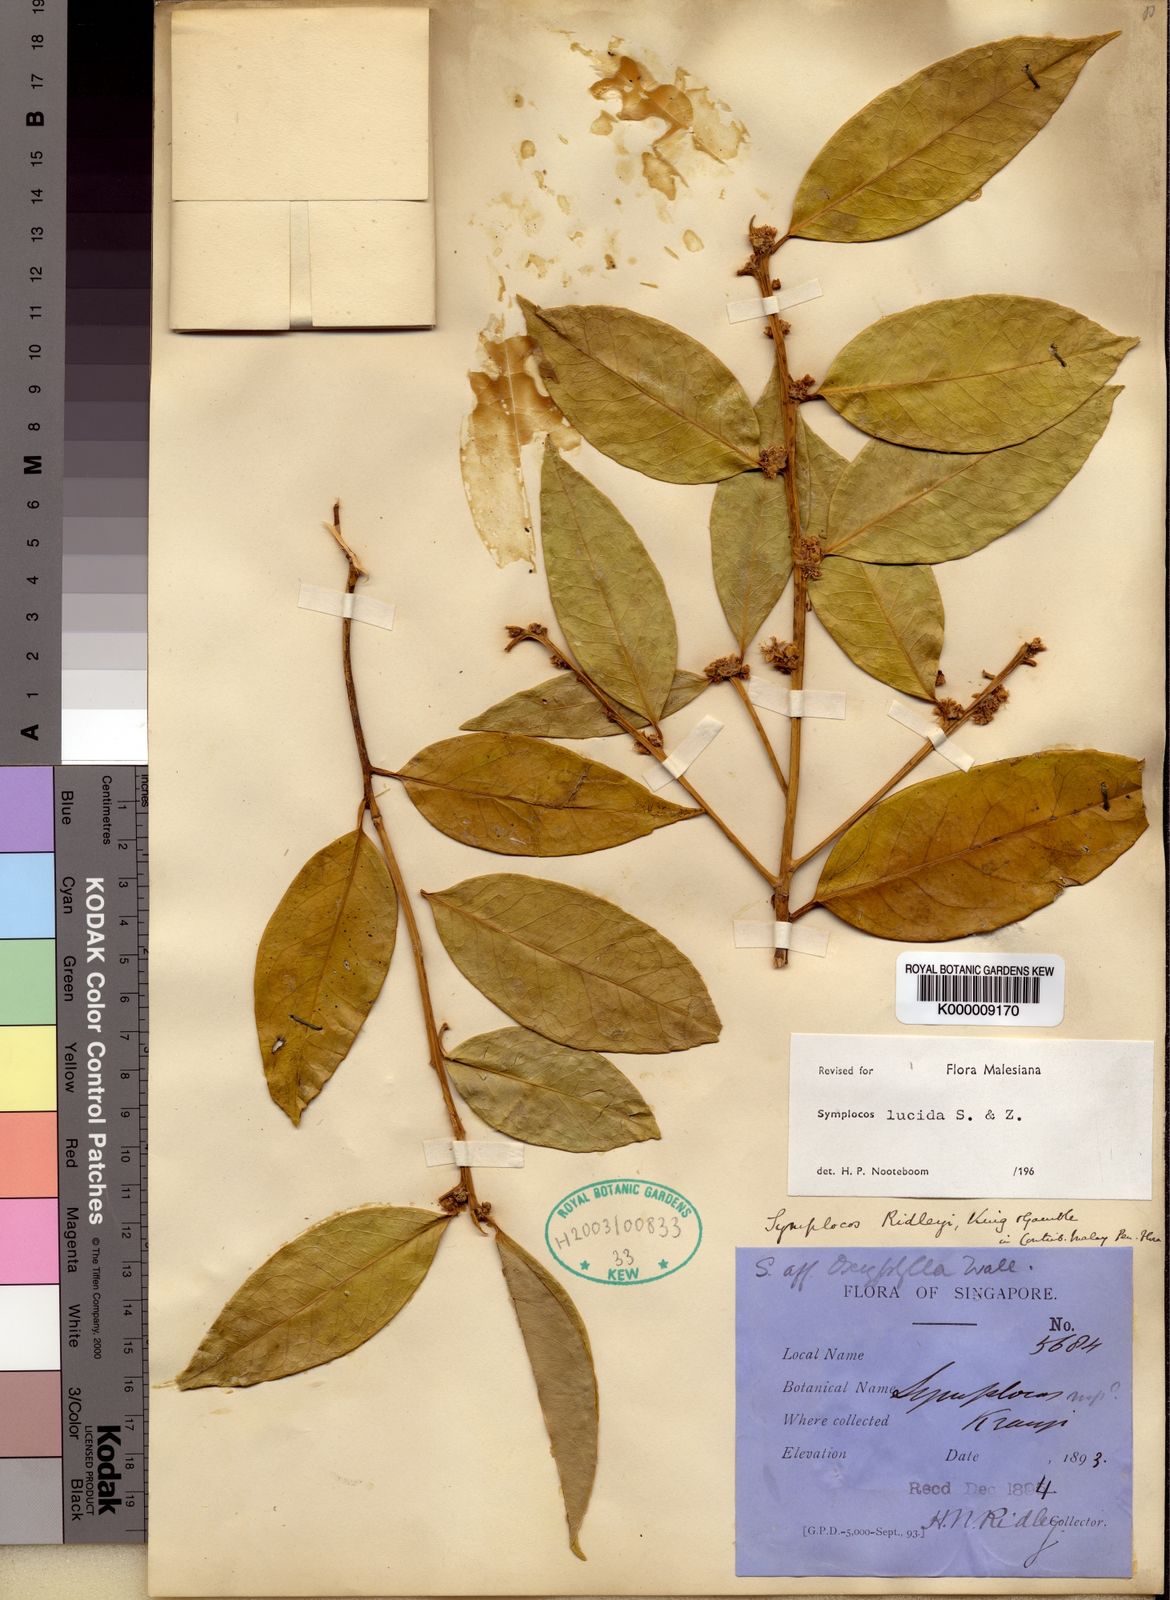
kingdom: Plantae
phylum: Tracheophyta
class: Magnoliopsida
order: Ericales
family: Symplocaceae
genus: Symplocos
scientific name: Symplocos
